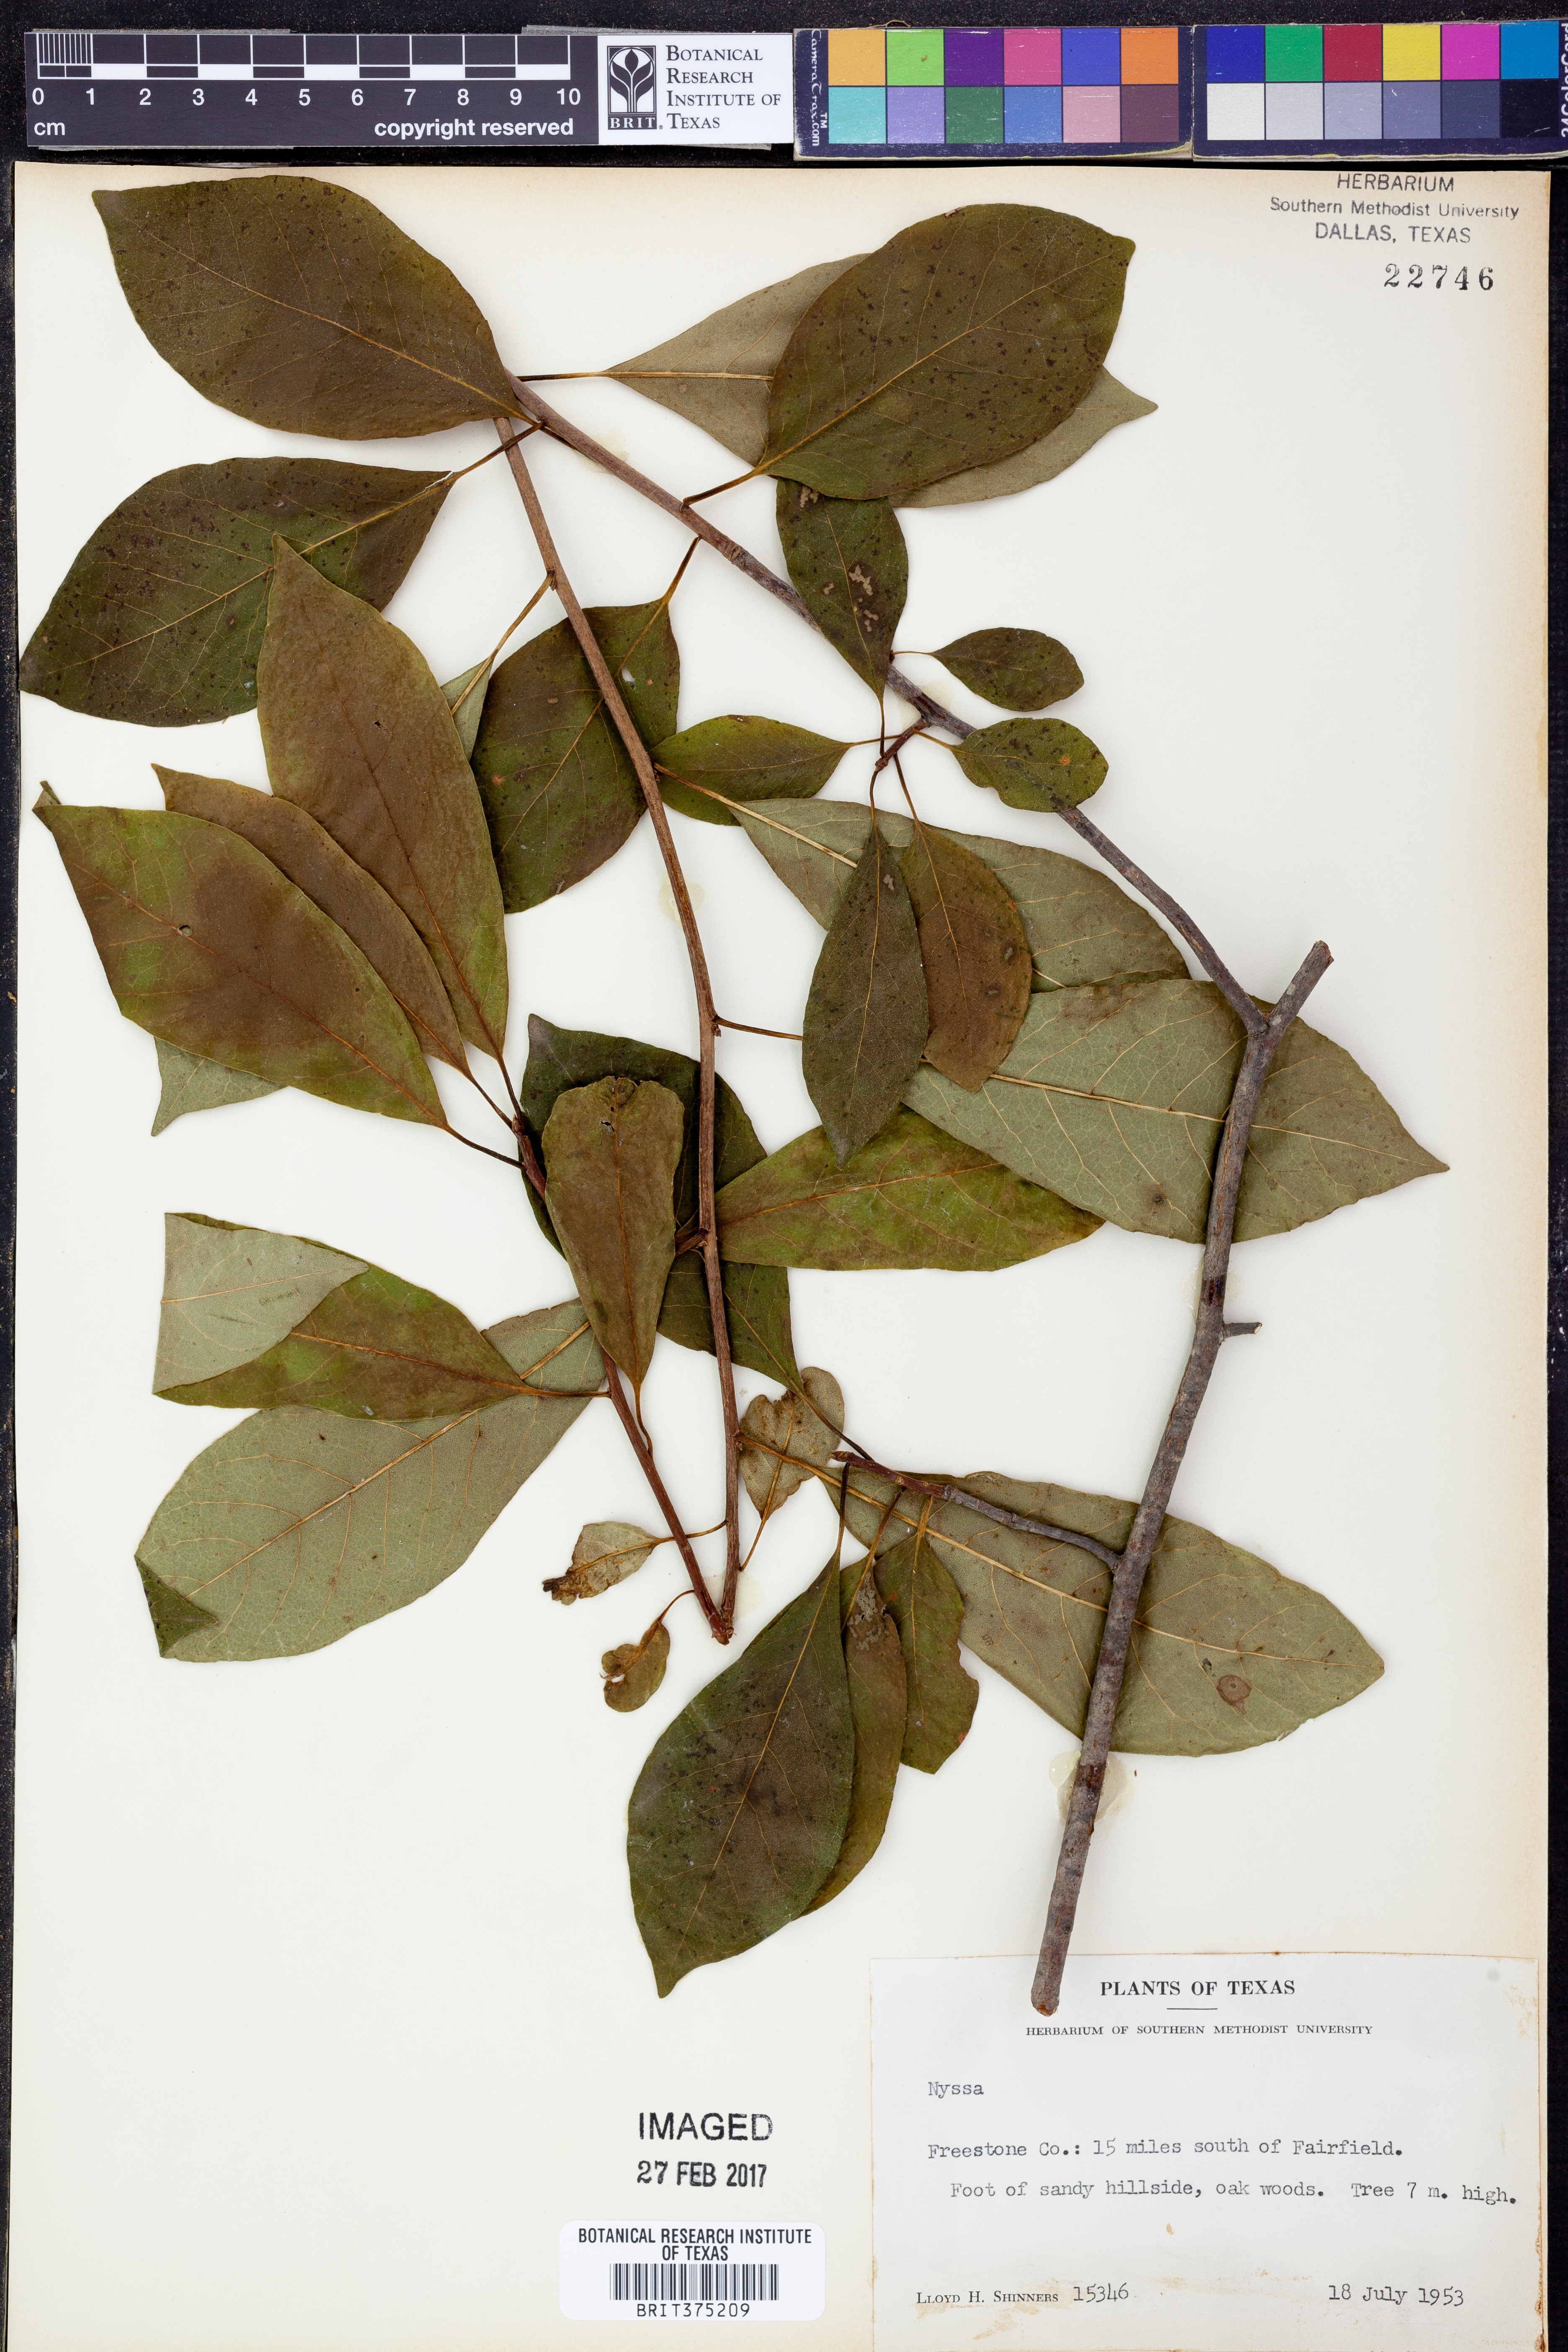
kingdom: Plantae
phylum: Tracheophyta
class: Magnoliopsida
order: Cornales
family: Nyssaceae
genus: Nyssa
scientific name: Nyssa
